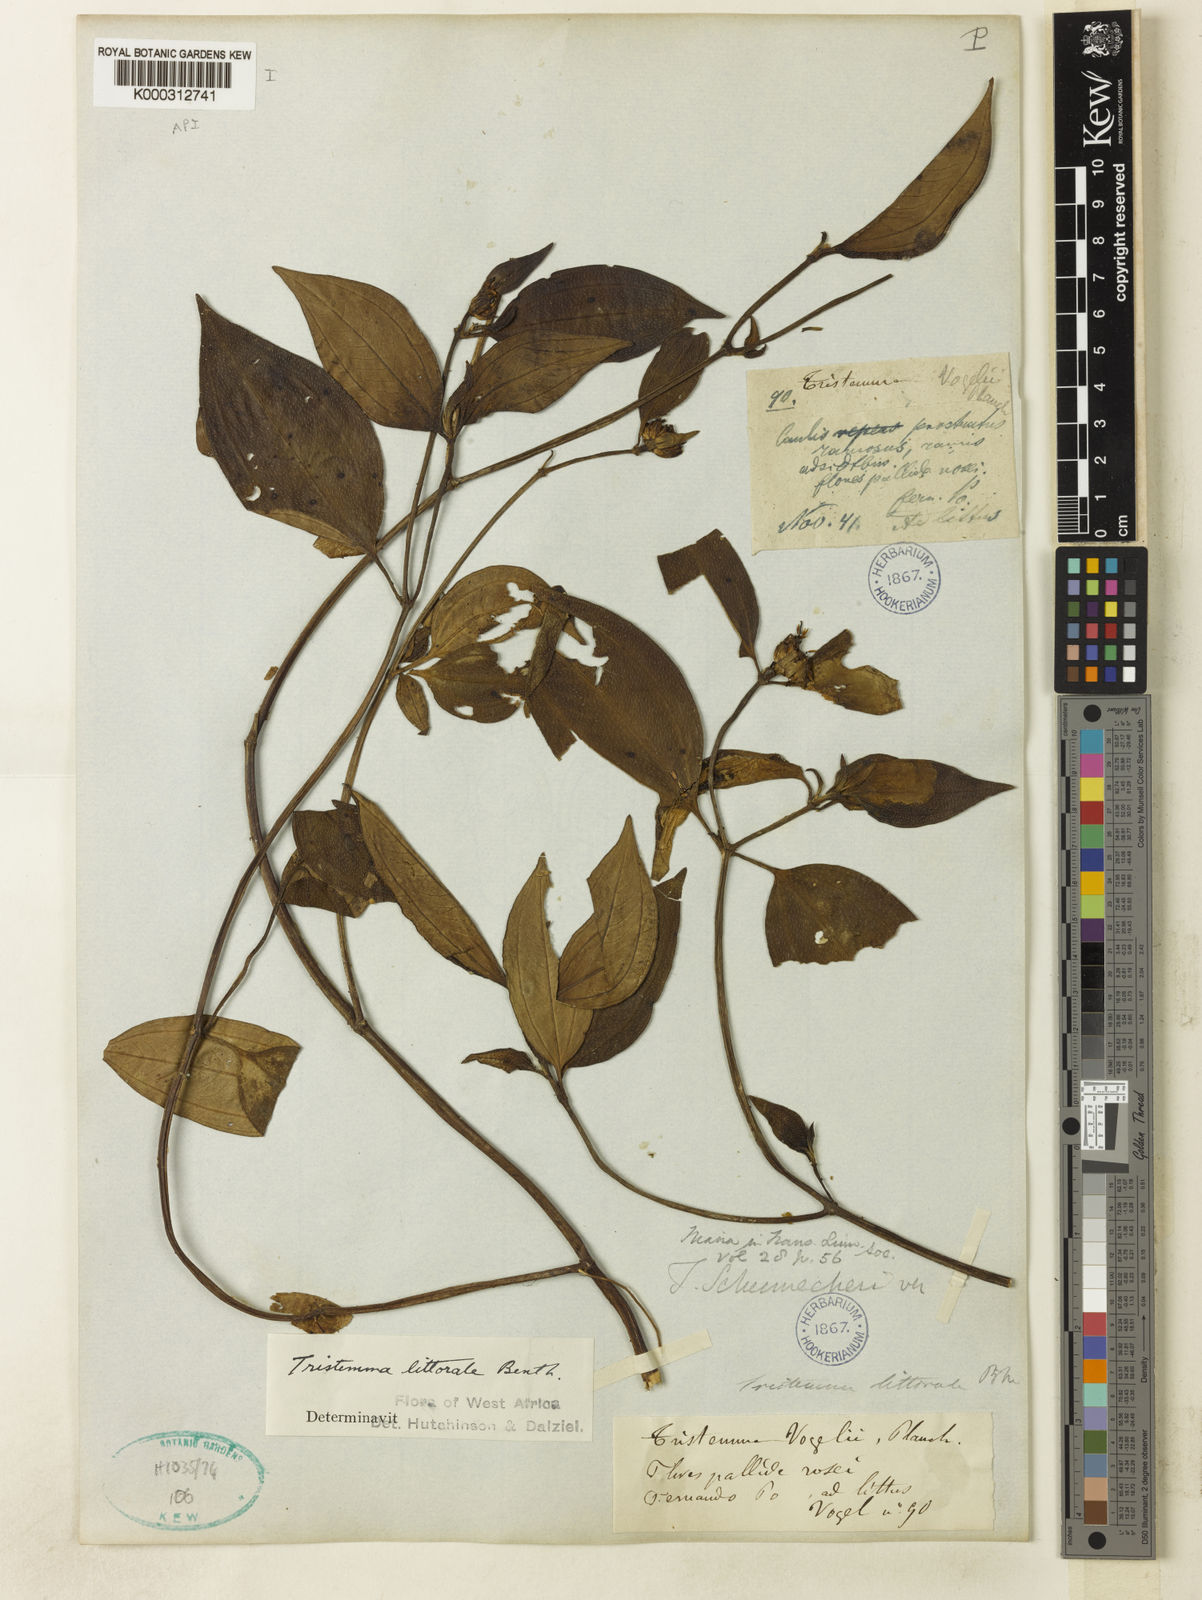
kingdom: Plantae
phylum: Tracheophyta
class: Magnoliopsida
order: Myrtales
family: Melastomataceae
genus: Tristemma
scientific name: Tristemma littorale
